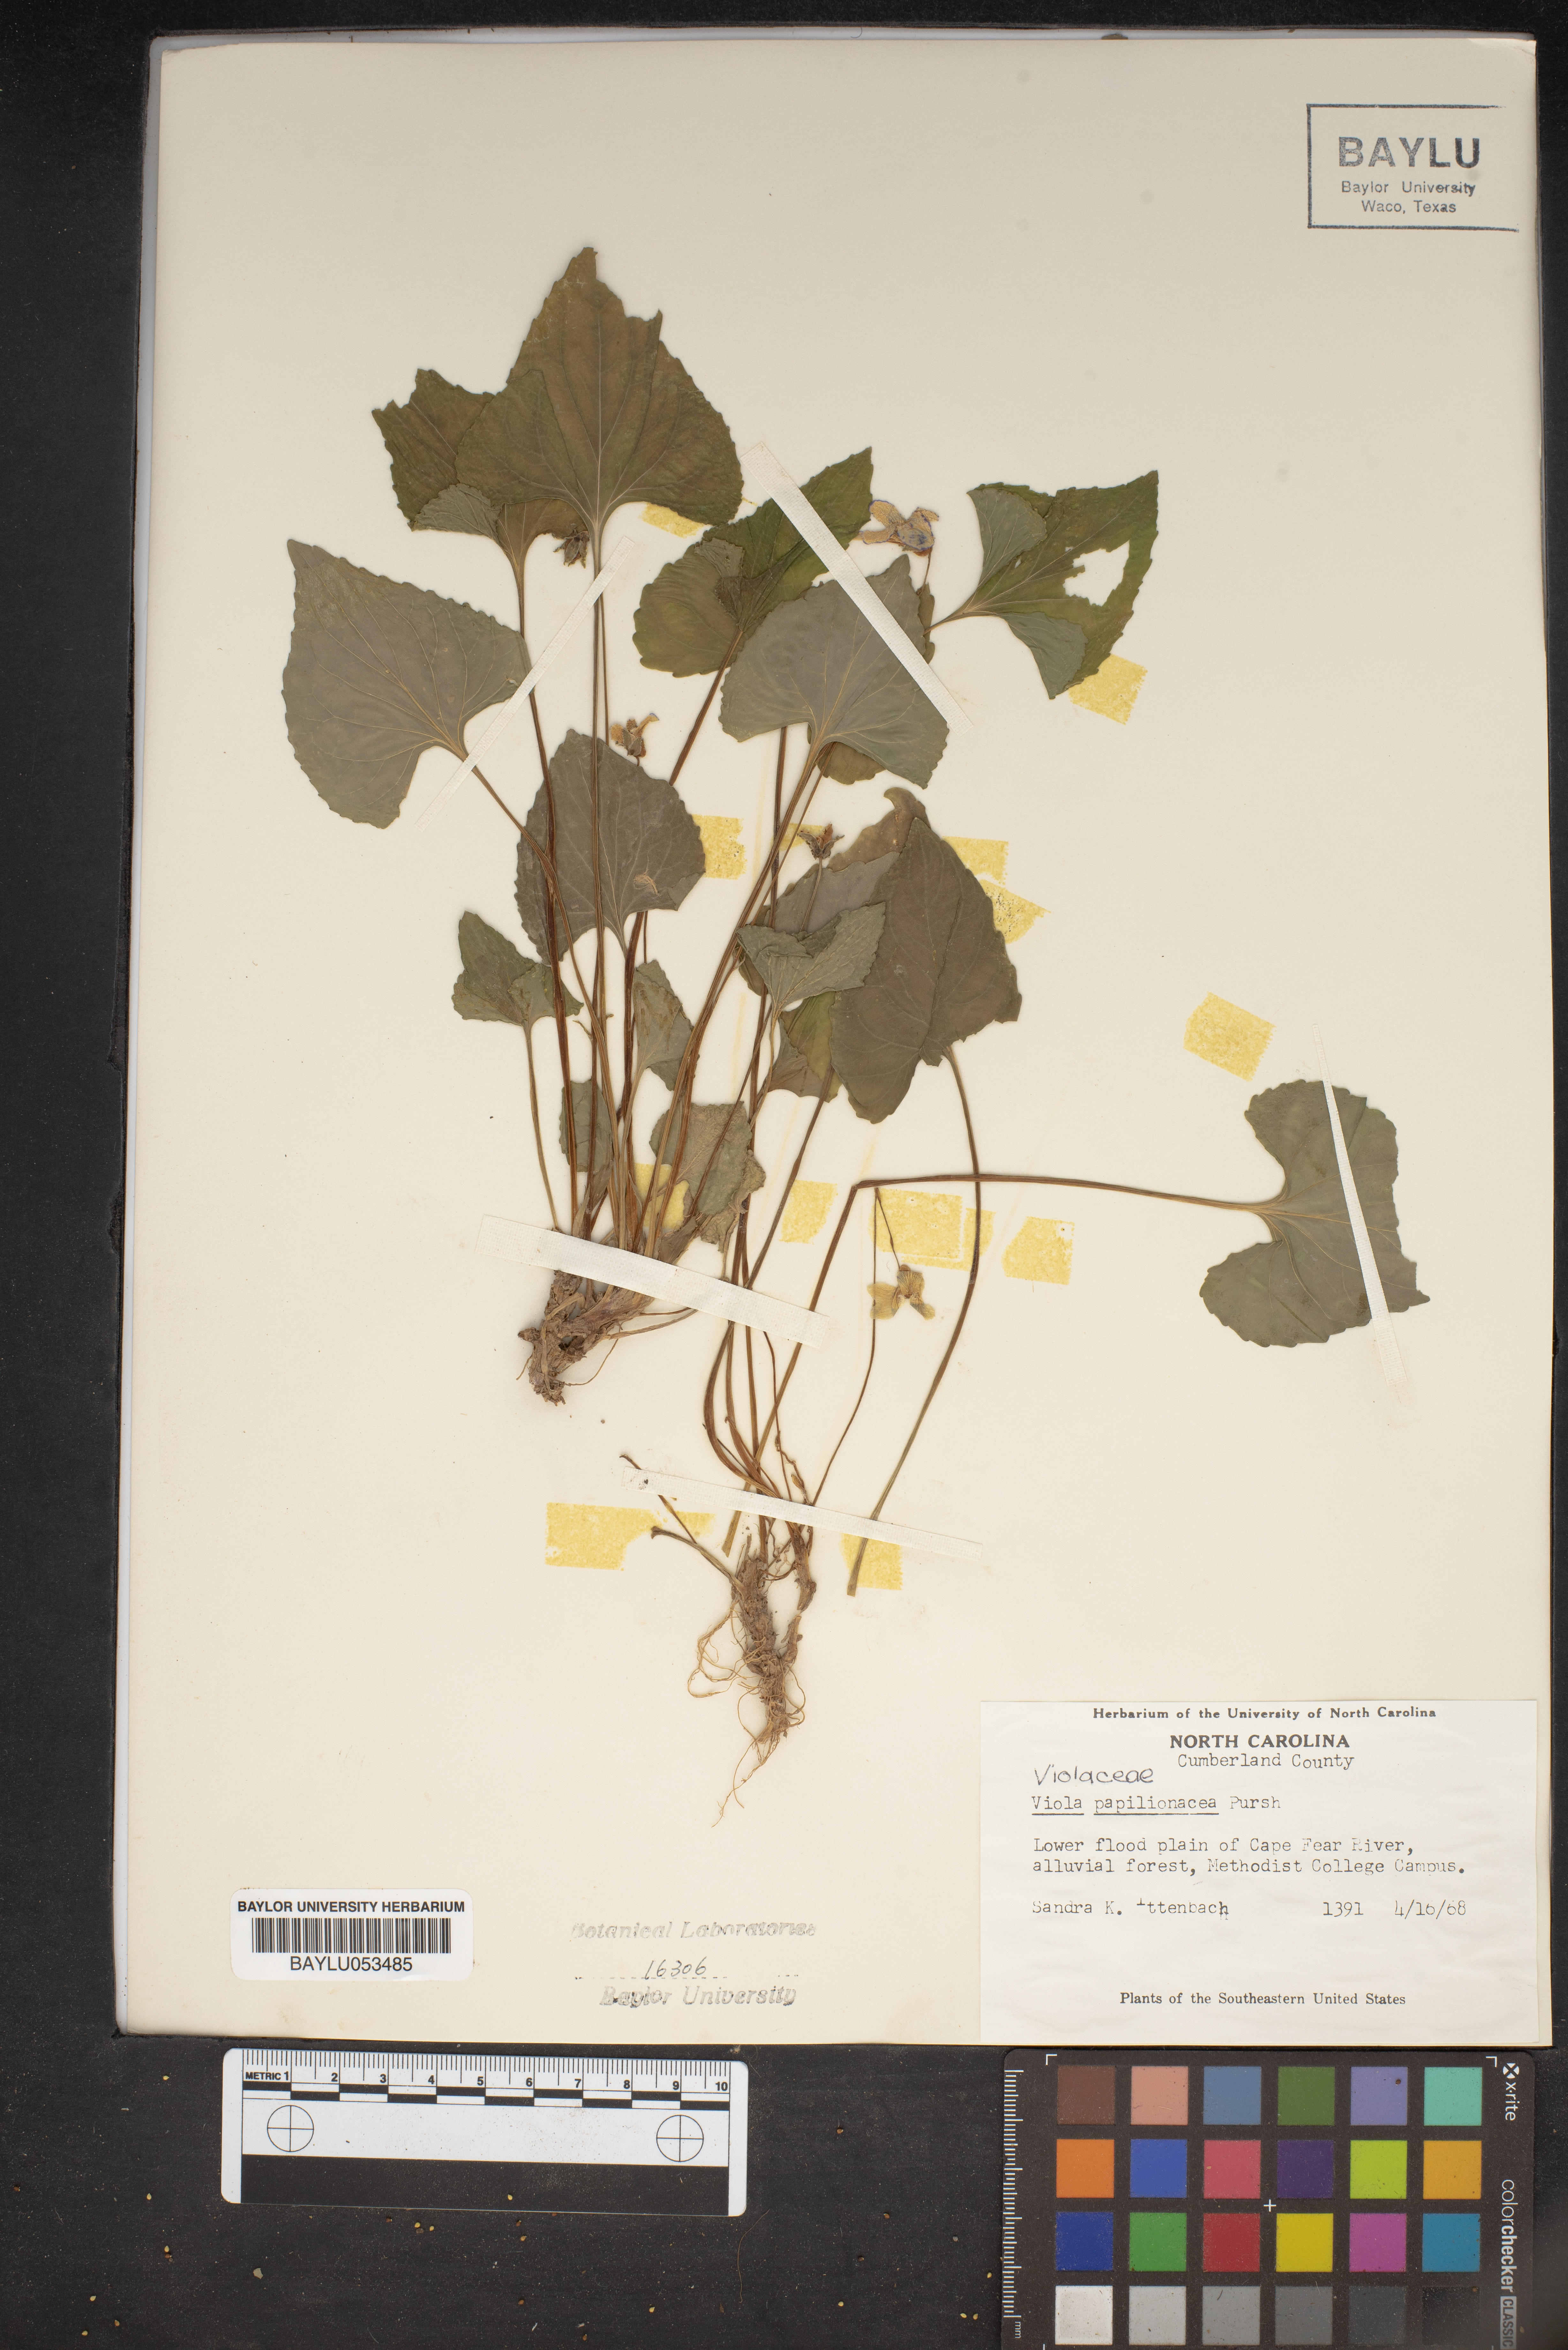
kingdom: Plantae
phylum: Tracheophyta
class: Magnoliopsida
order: Malpighiales
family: Violaceae
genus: Viola
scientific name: Viola sororia
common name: Dooryard violet
